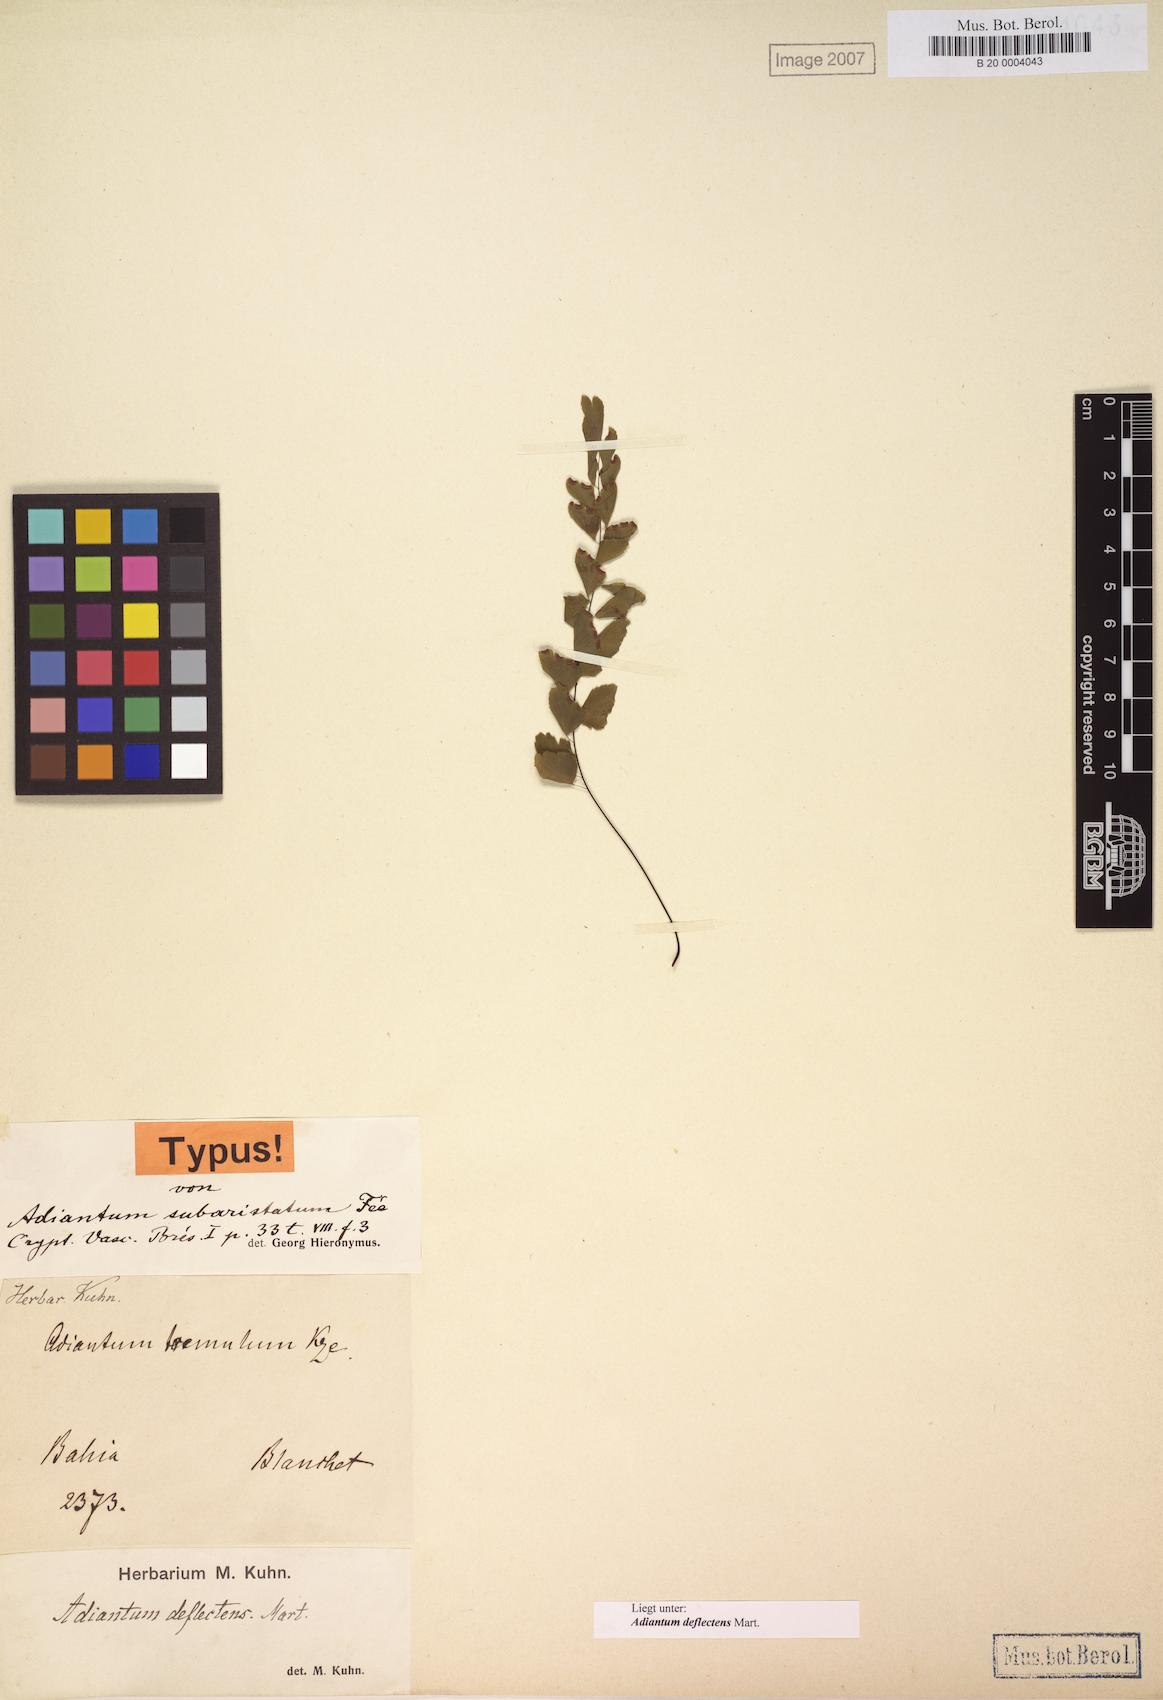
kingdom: Plantae
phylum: Tracheophyta
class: Polypodiopsida
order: Polypodiales
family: Pteridaceae
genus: Adiantum
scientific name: Adiantum deflectens
